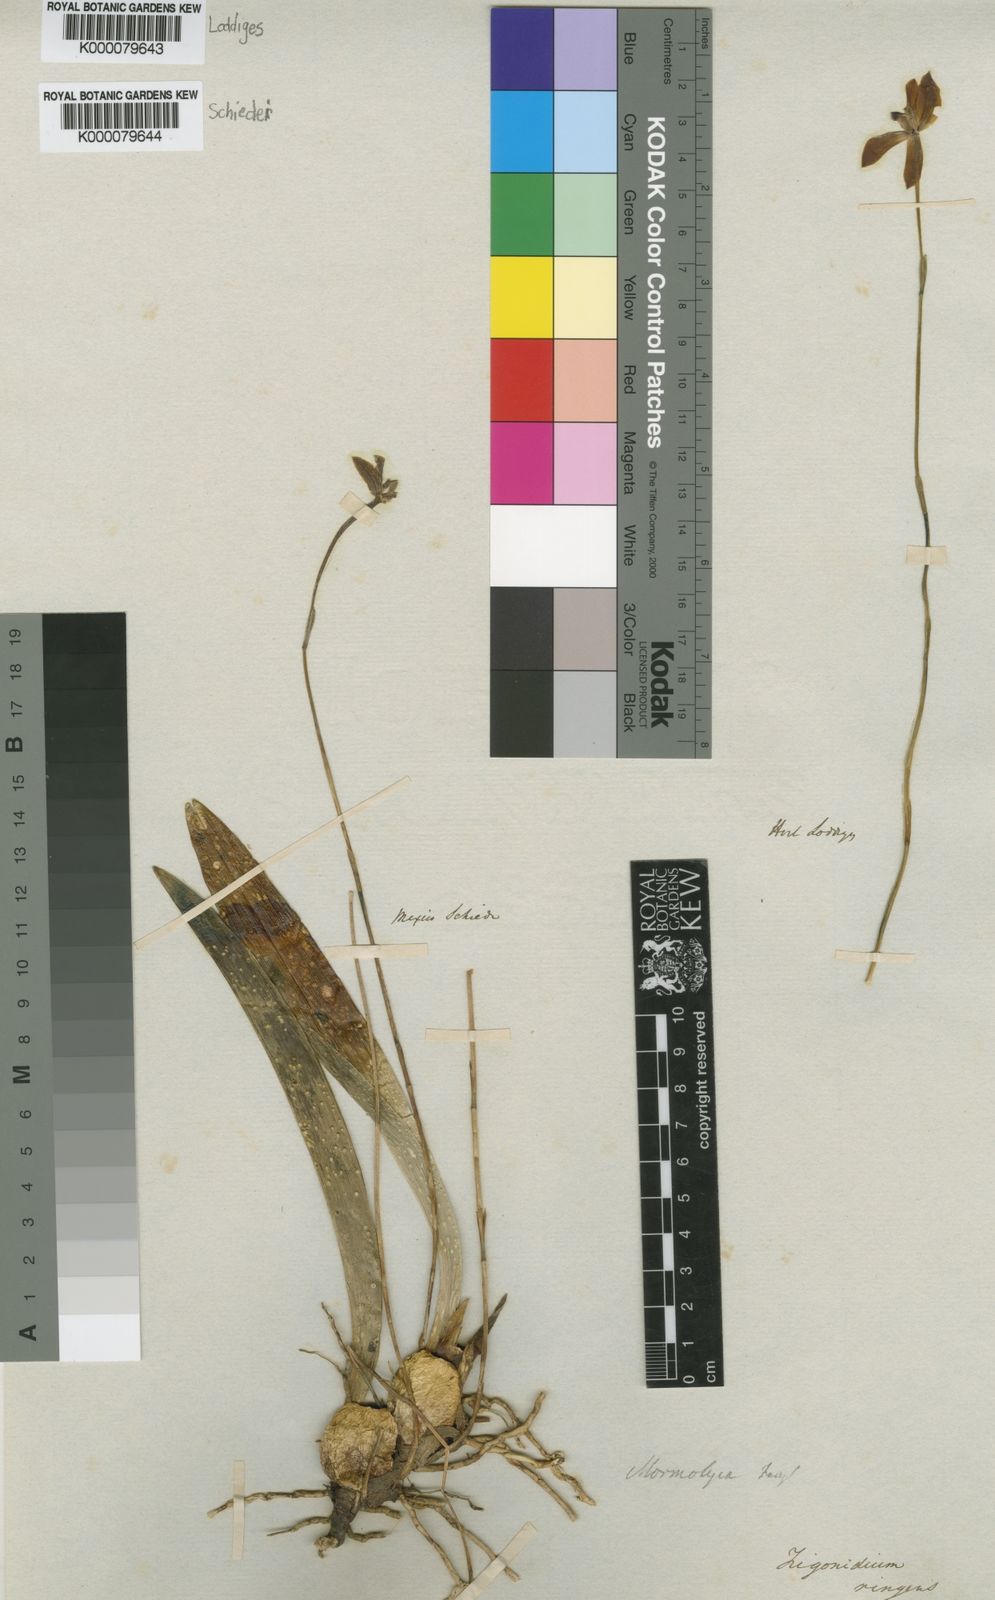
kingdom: Plantae
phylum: Tracheophyta
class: Liliopsida
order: Asparagales
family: Orchidaceae
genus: Maxillaria
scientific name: Maxillaria lineolata
